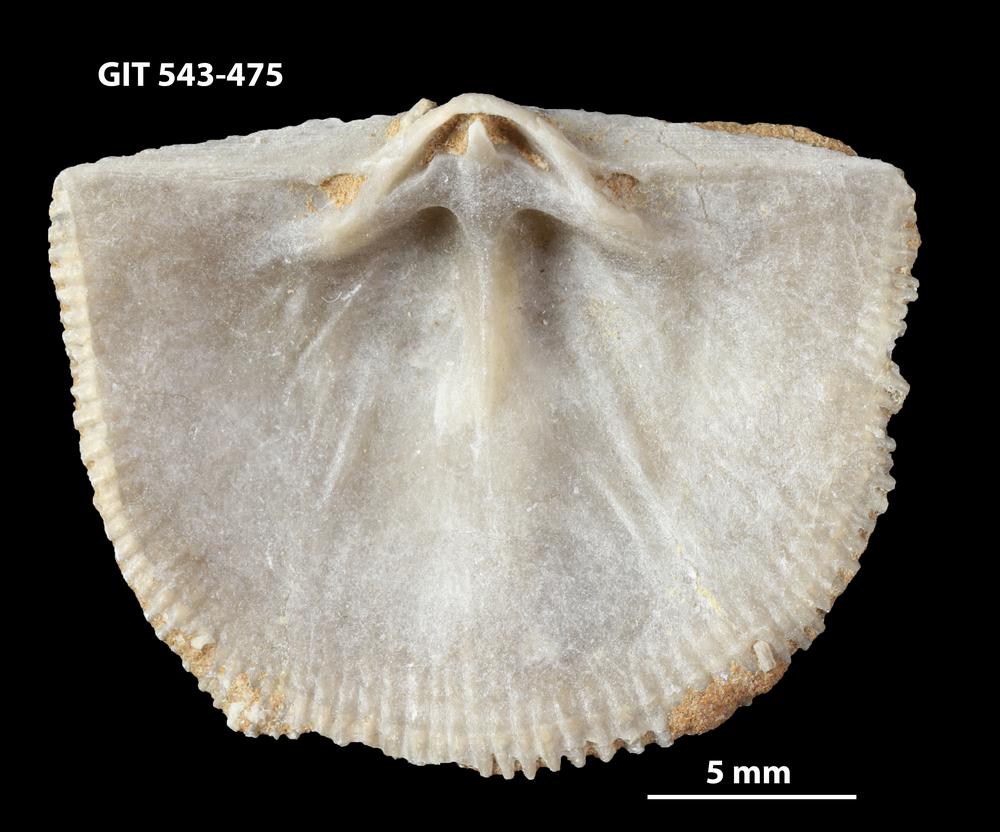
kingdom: Animalia
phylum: Brachiopoda
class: Rhynchonellata
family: Clitambonitidae
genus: Clitambonites
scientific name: Clitambonites squamatus
